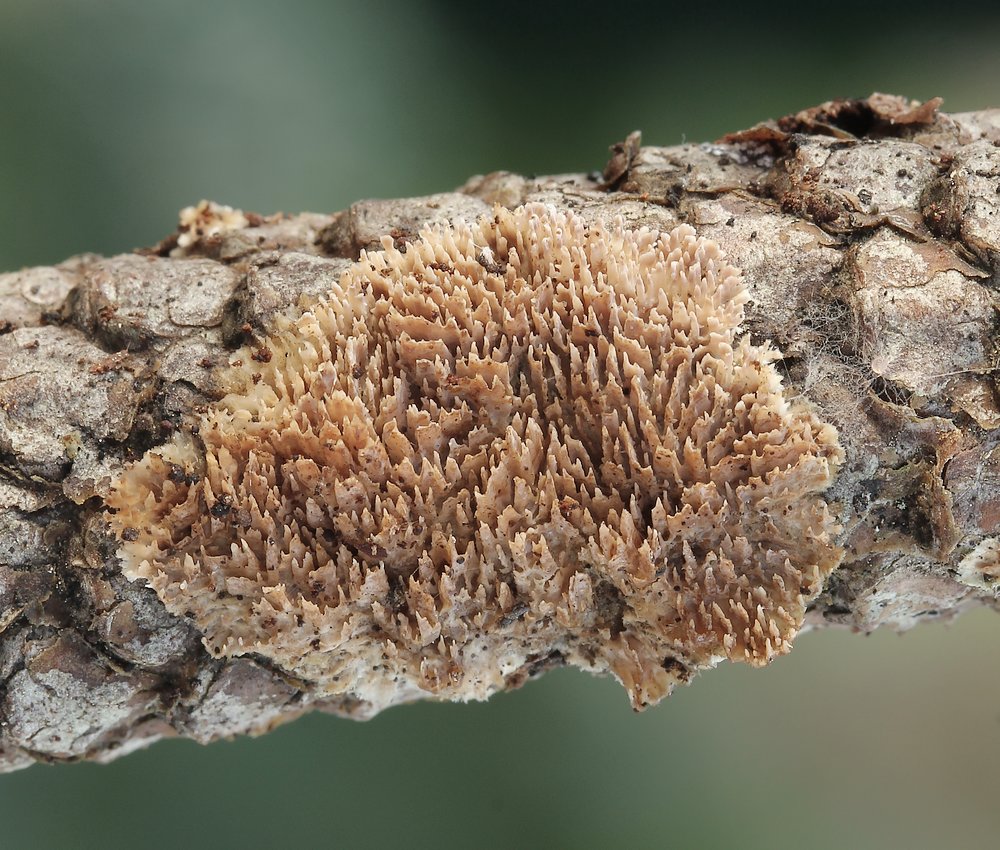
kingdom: Fungi
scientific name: Fungi
